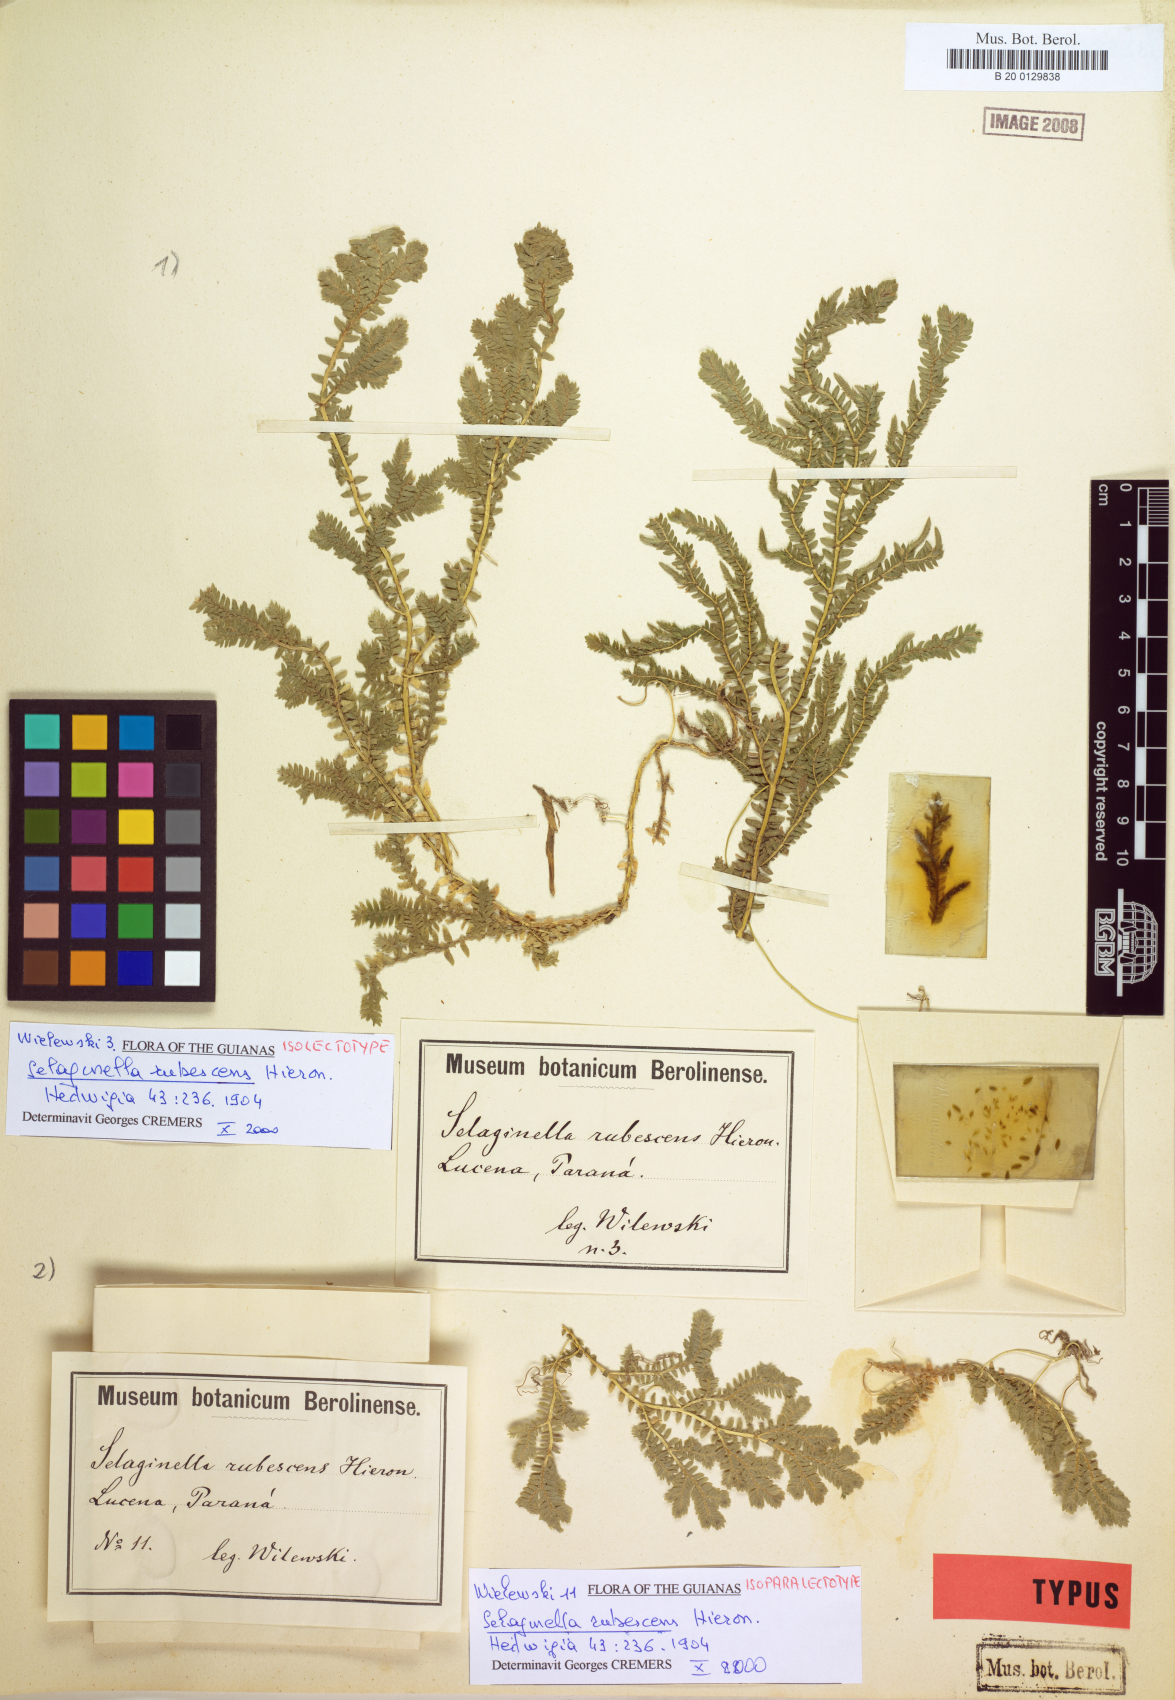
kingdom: Plantae
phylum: Tracheophyta
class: Lycopodiopsida
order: Selaginellales
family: Selaginellaceae
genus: Selaginella
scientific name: Selaginella sulcata
